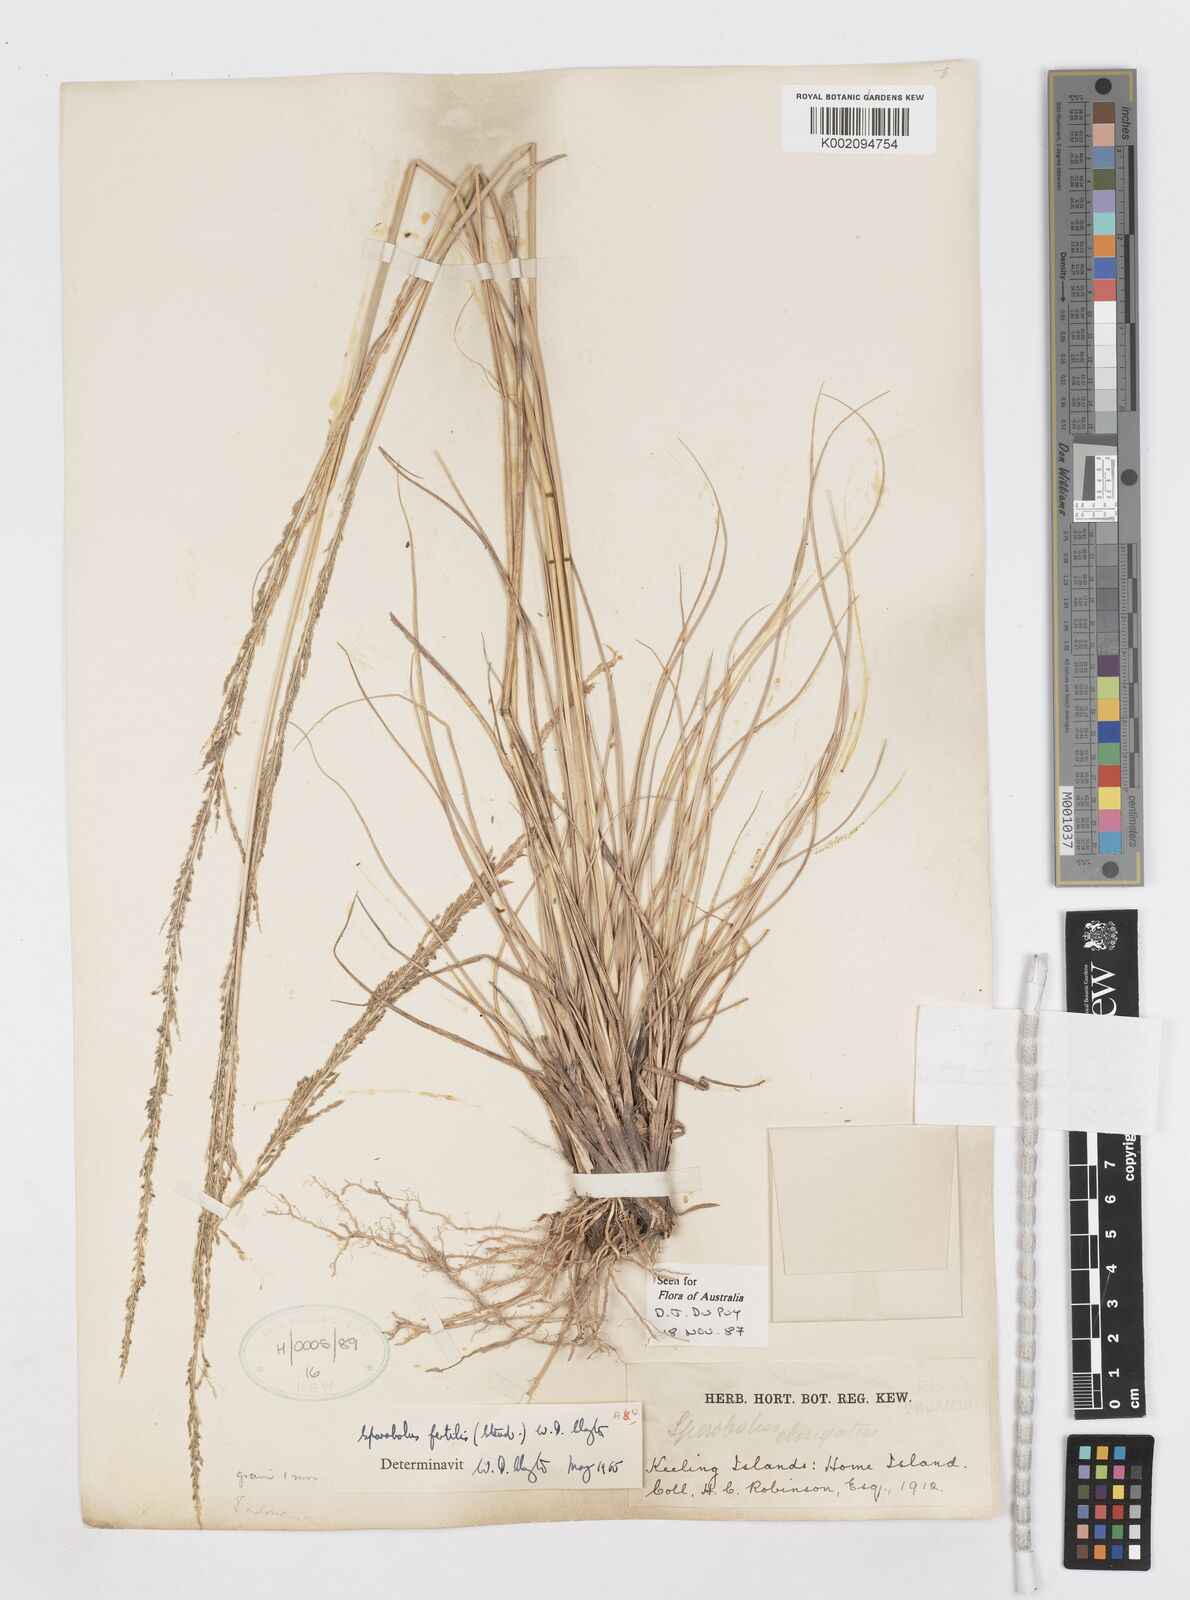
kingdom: Plantae
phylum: Tracheophyta
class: Liliopsida
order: Poales
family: Poaceae
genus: Sporobolus
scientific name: Sporobolus fertilis
